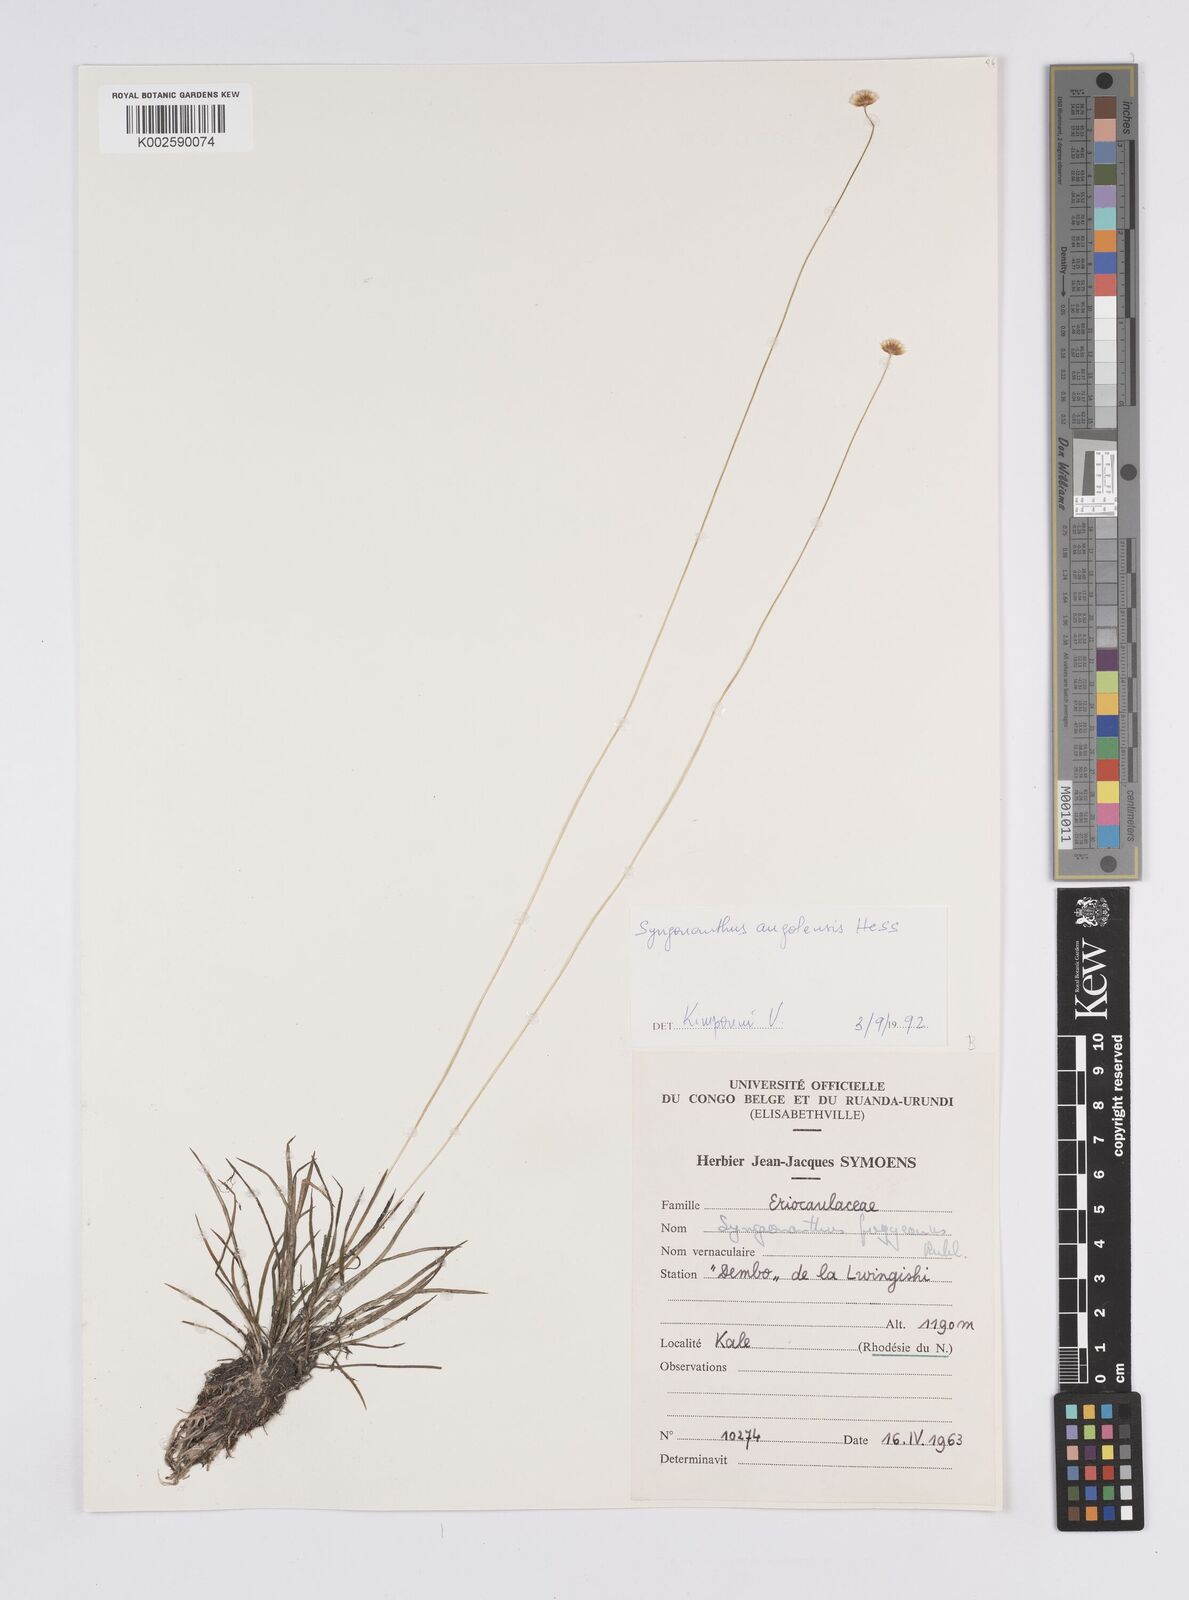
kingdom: Plantae
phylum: Tracheophyta
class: Liliopsida
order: Poales
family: Eriocaulaceae
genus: Syngonanthus
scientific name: Syngonanthus angolensis
